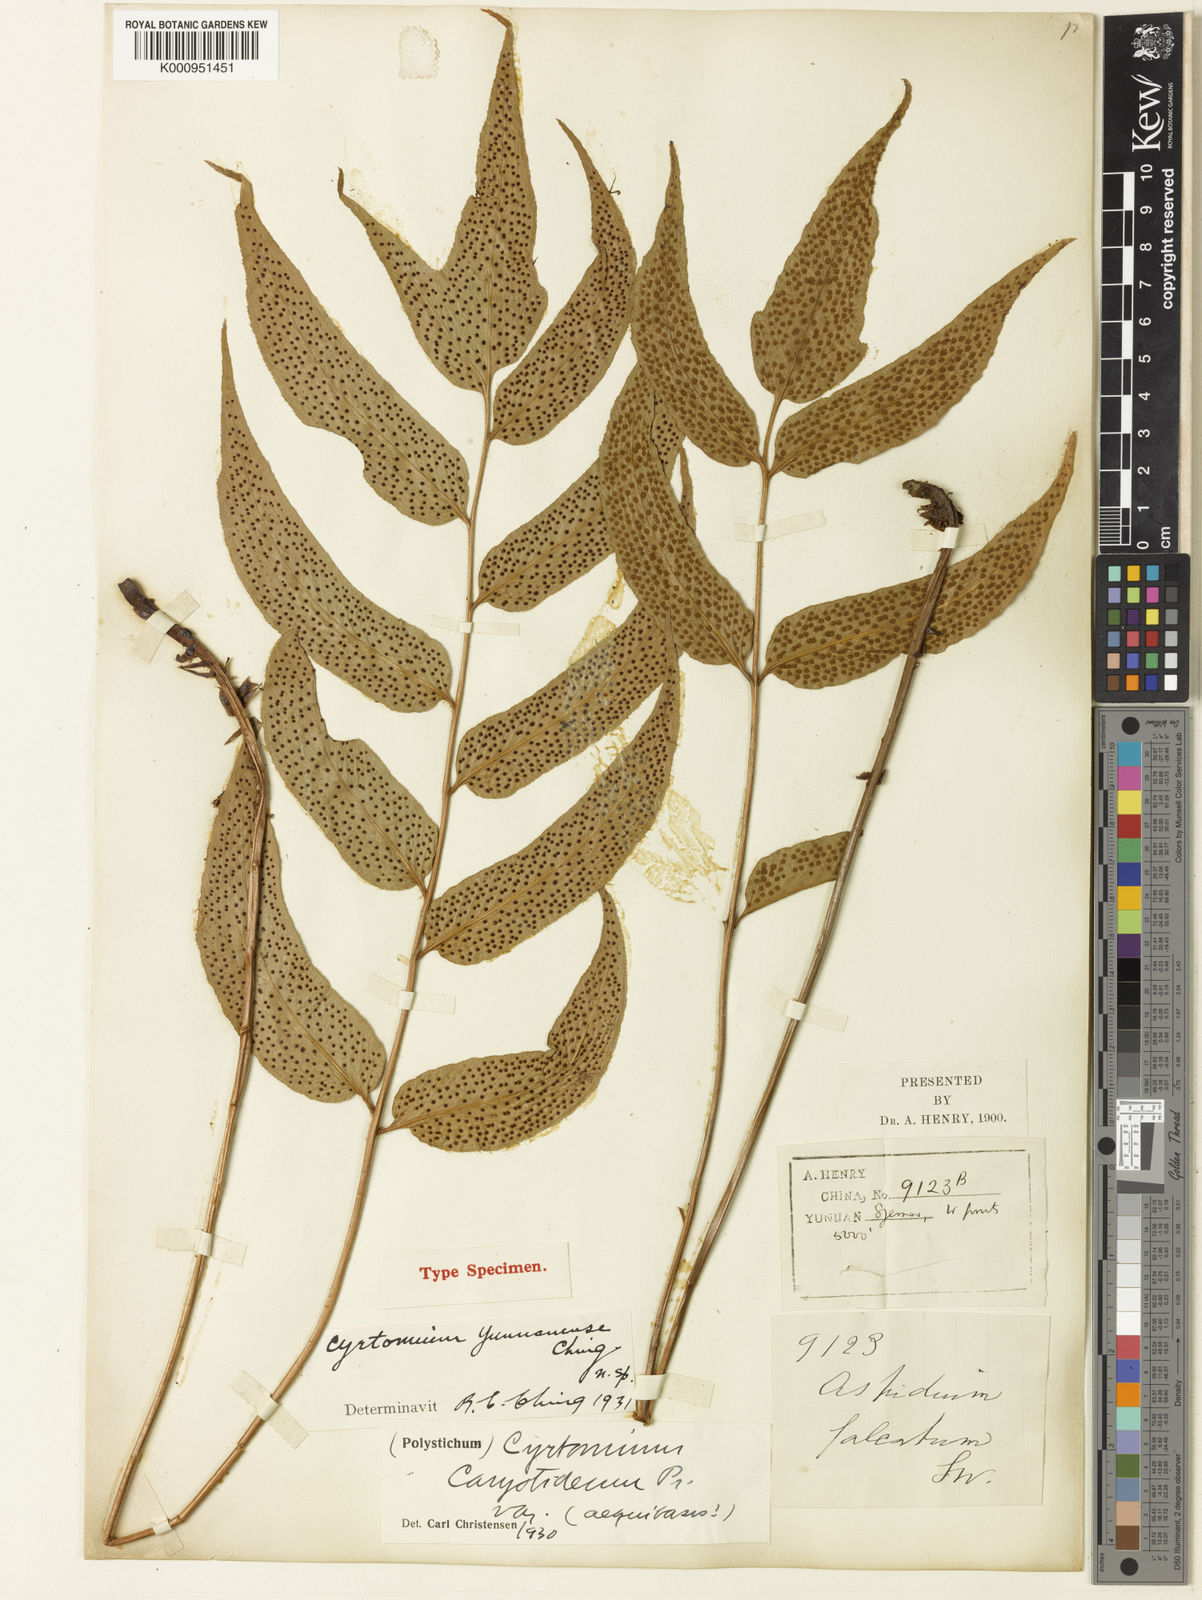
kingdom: Plantae
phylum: Tracheophyta
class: Polypodiopsida
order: Polypodiales
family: Thelypteridaceae
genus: Christella
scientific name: Christella euphlebia
